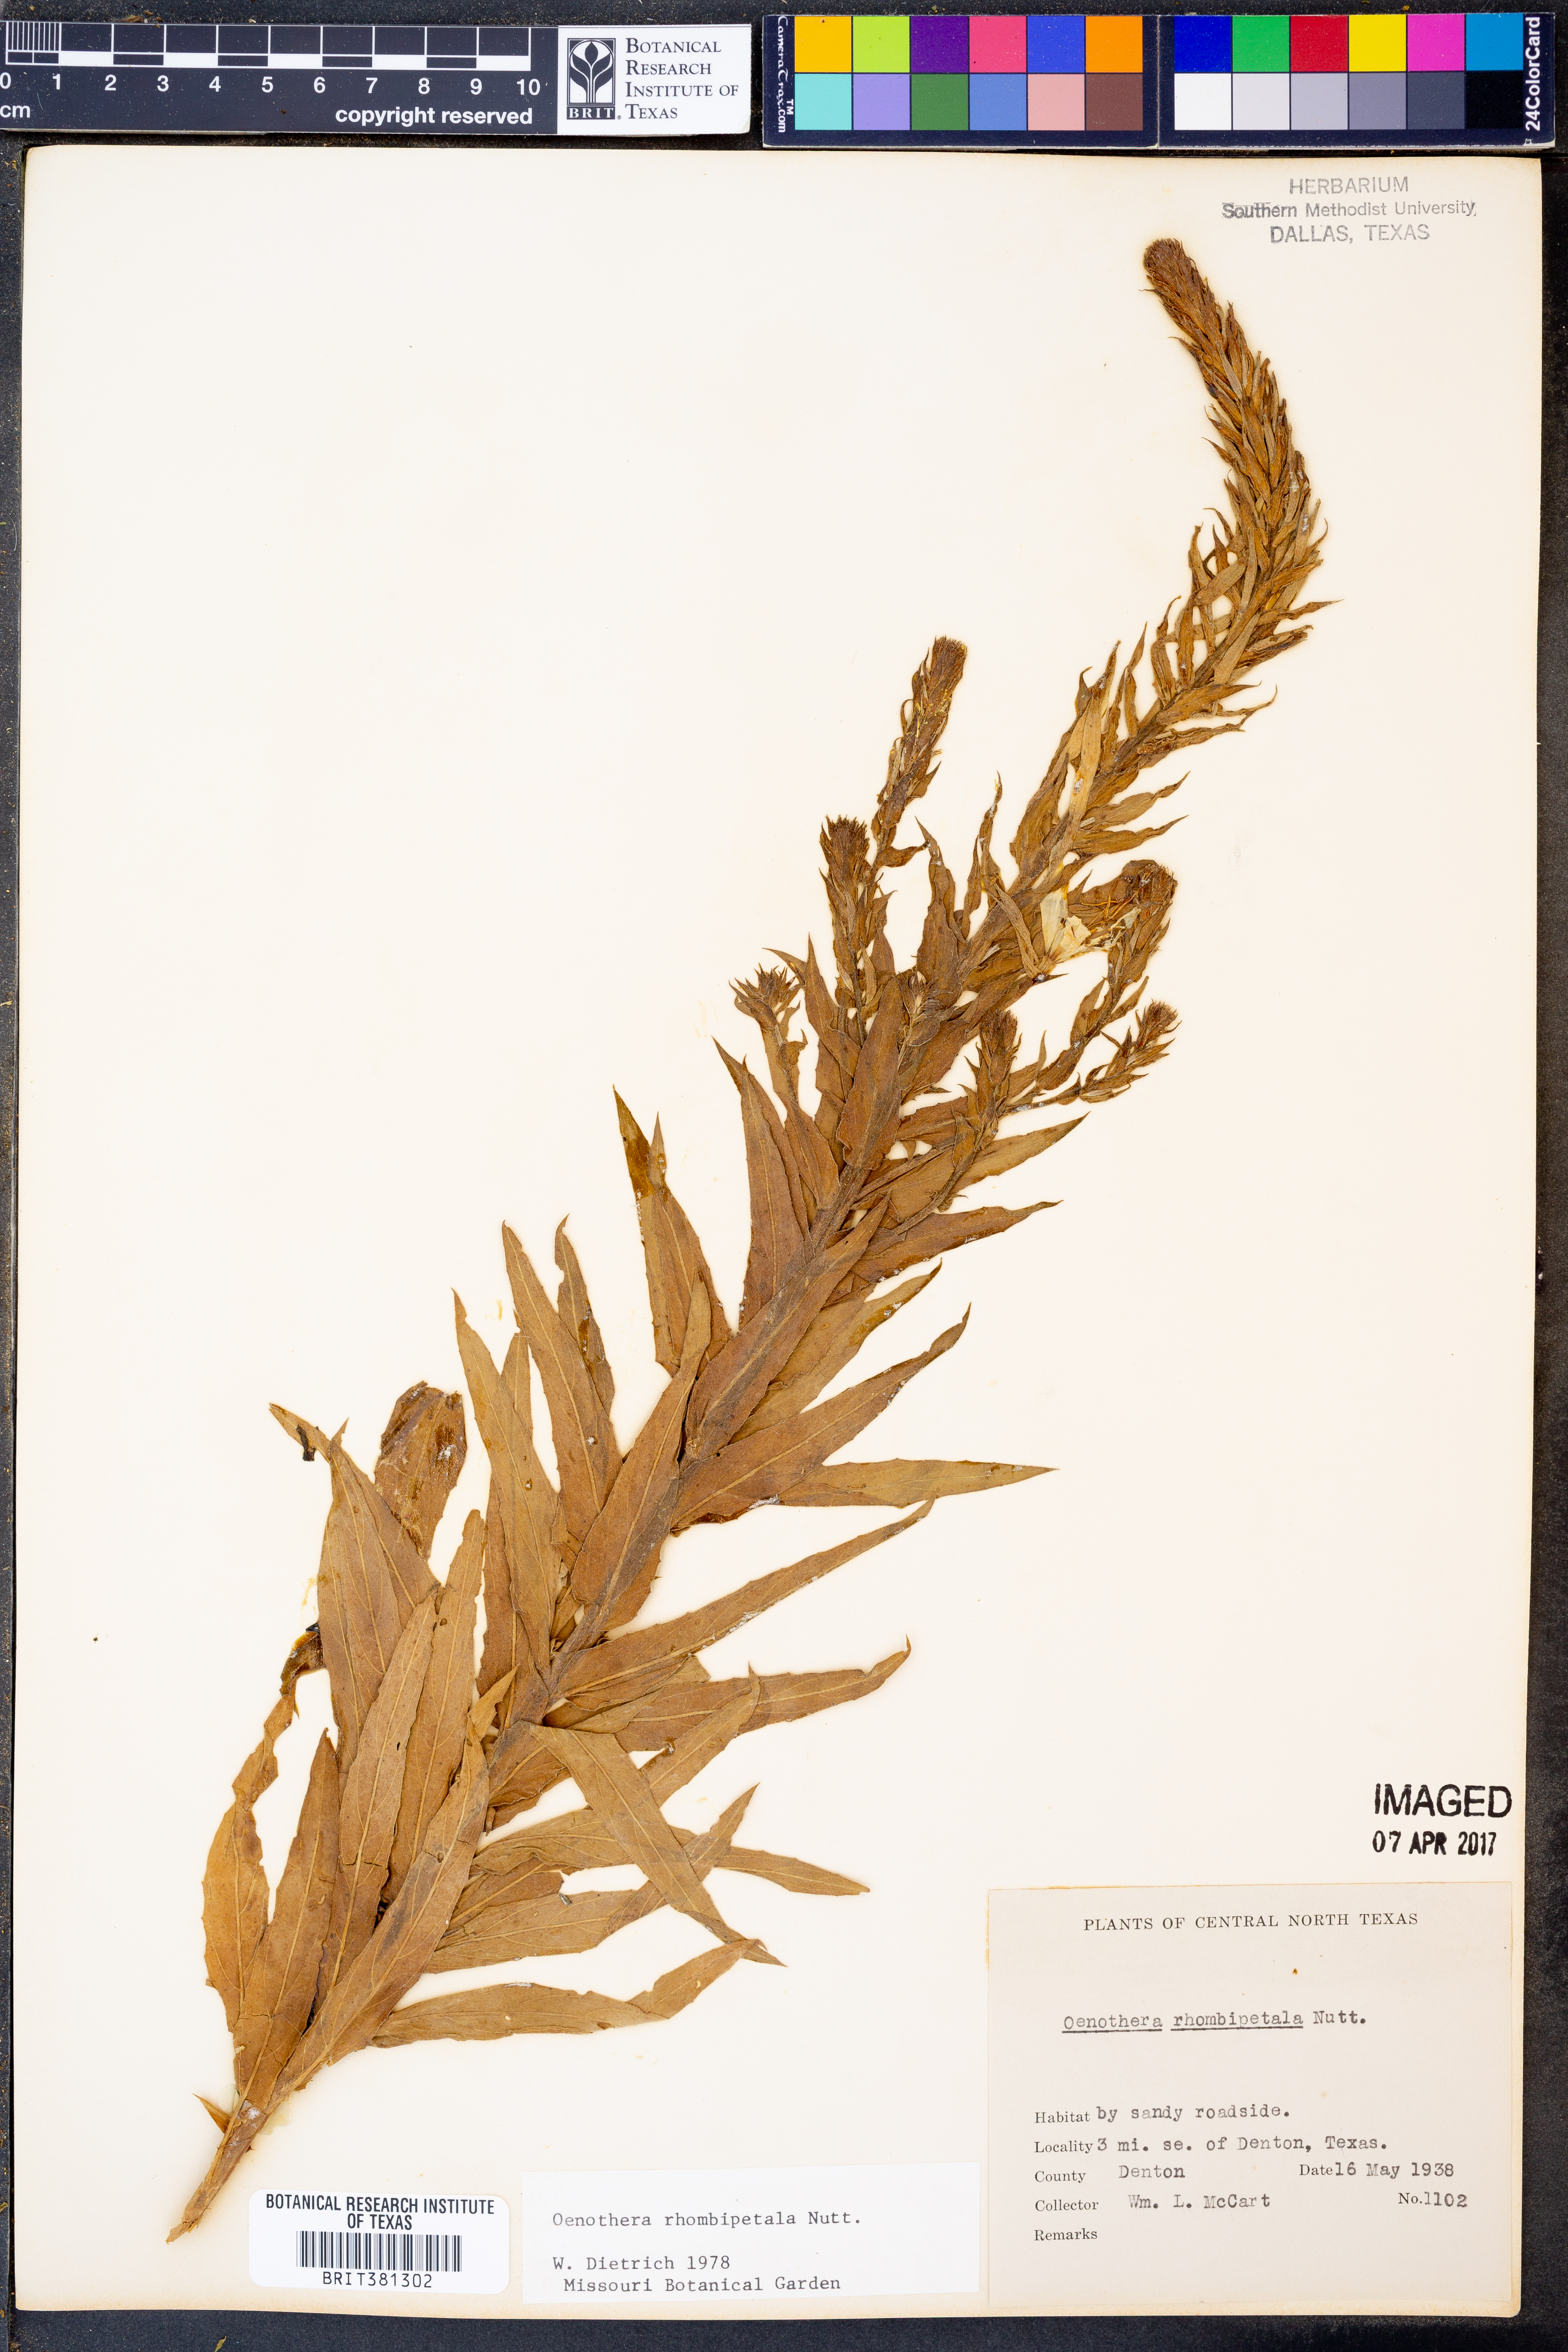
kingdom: Plantae
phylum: Tracheophyta
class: Magnoliopsida
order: Myrtales
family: Onagraceae
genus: Oenothera
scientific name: Oenothera rhombipetala
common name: Four-points evening-primrose
